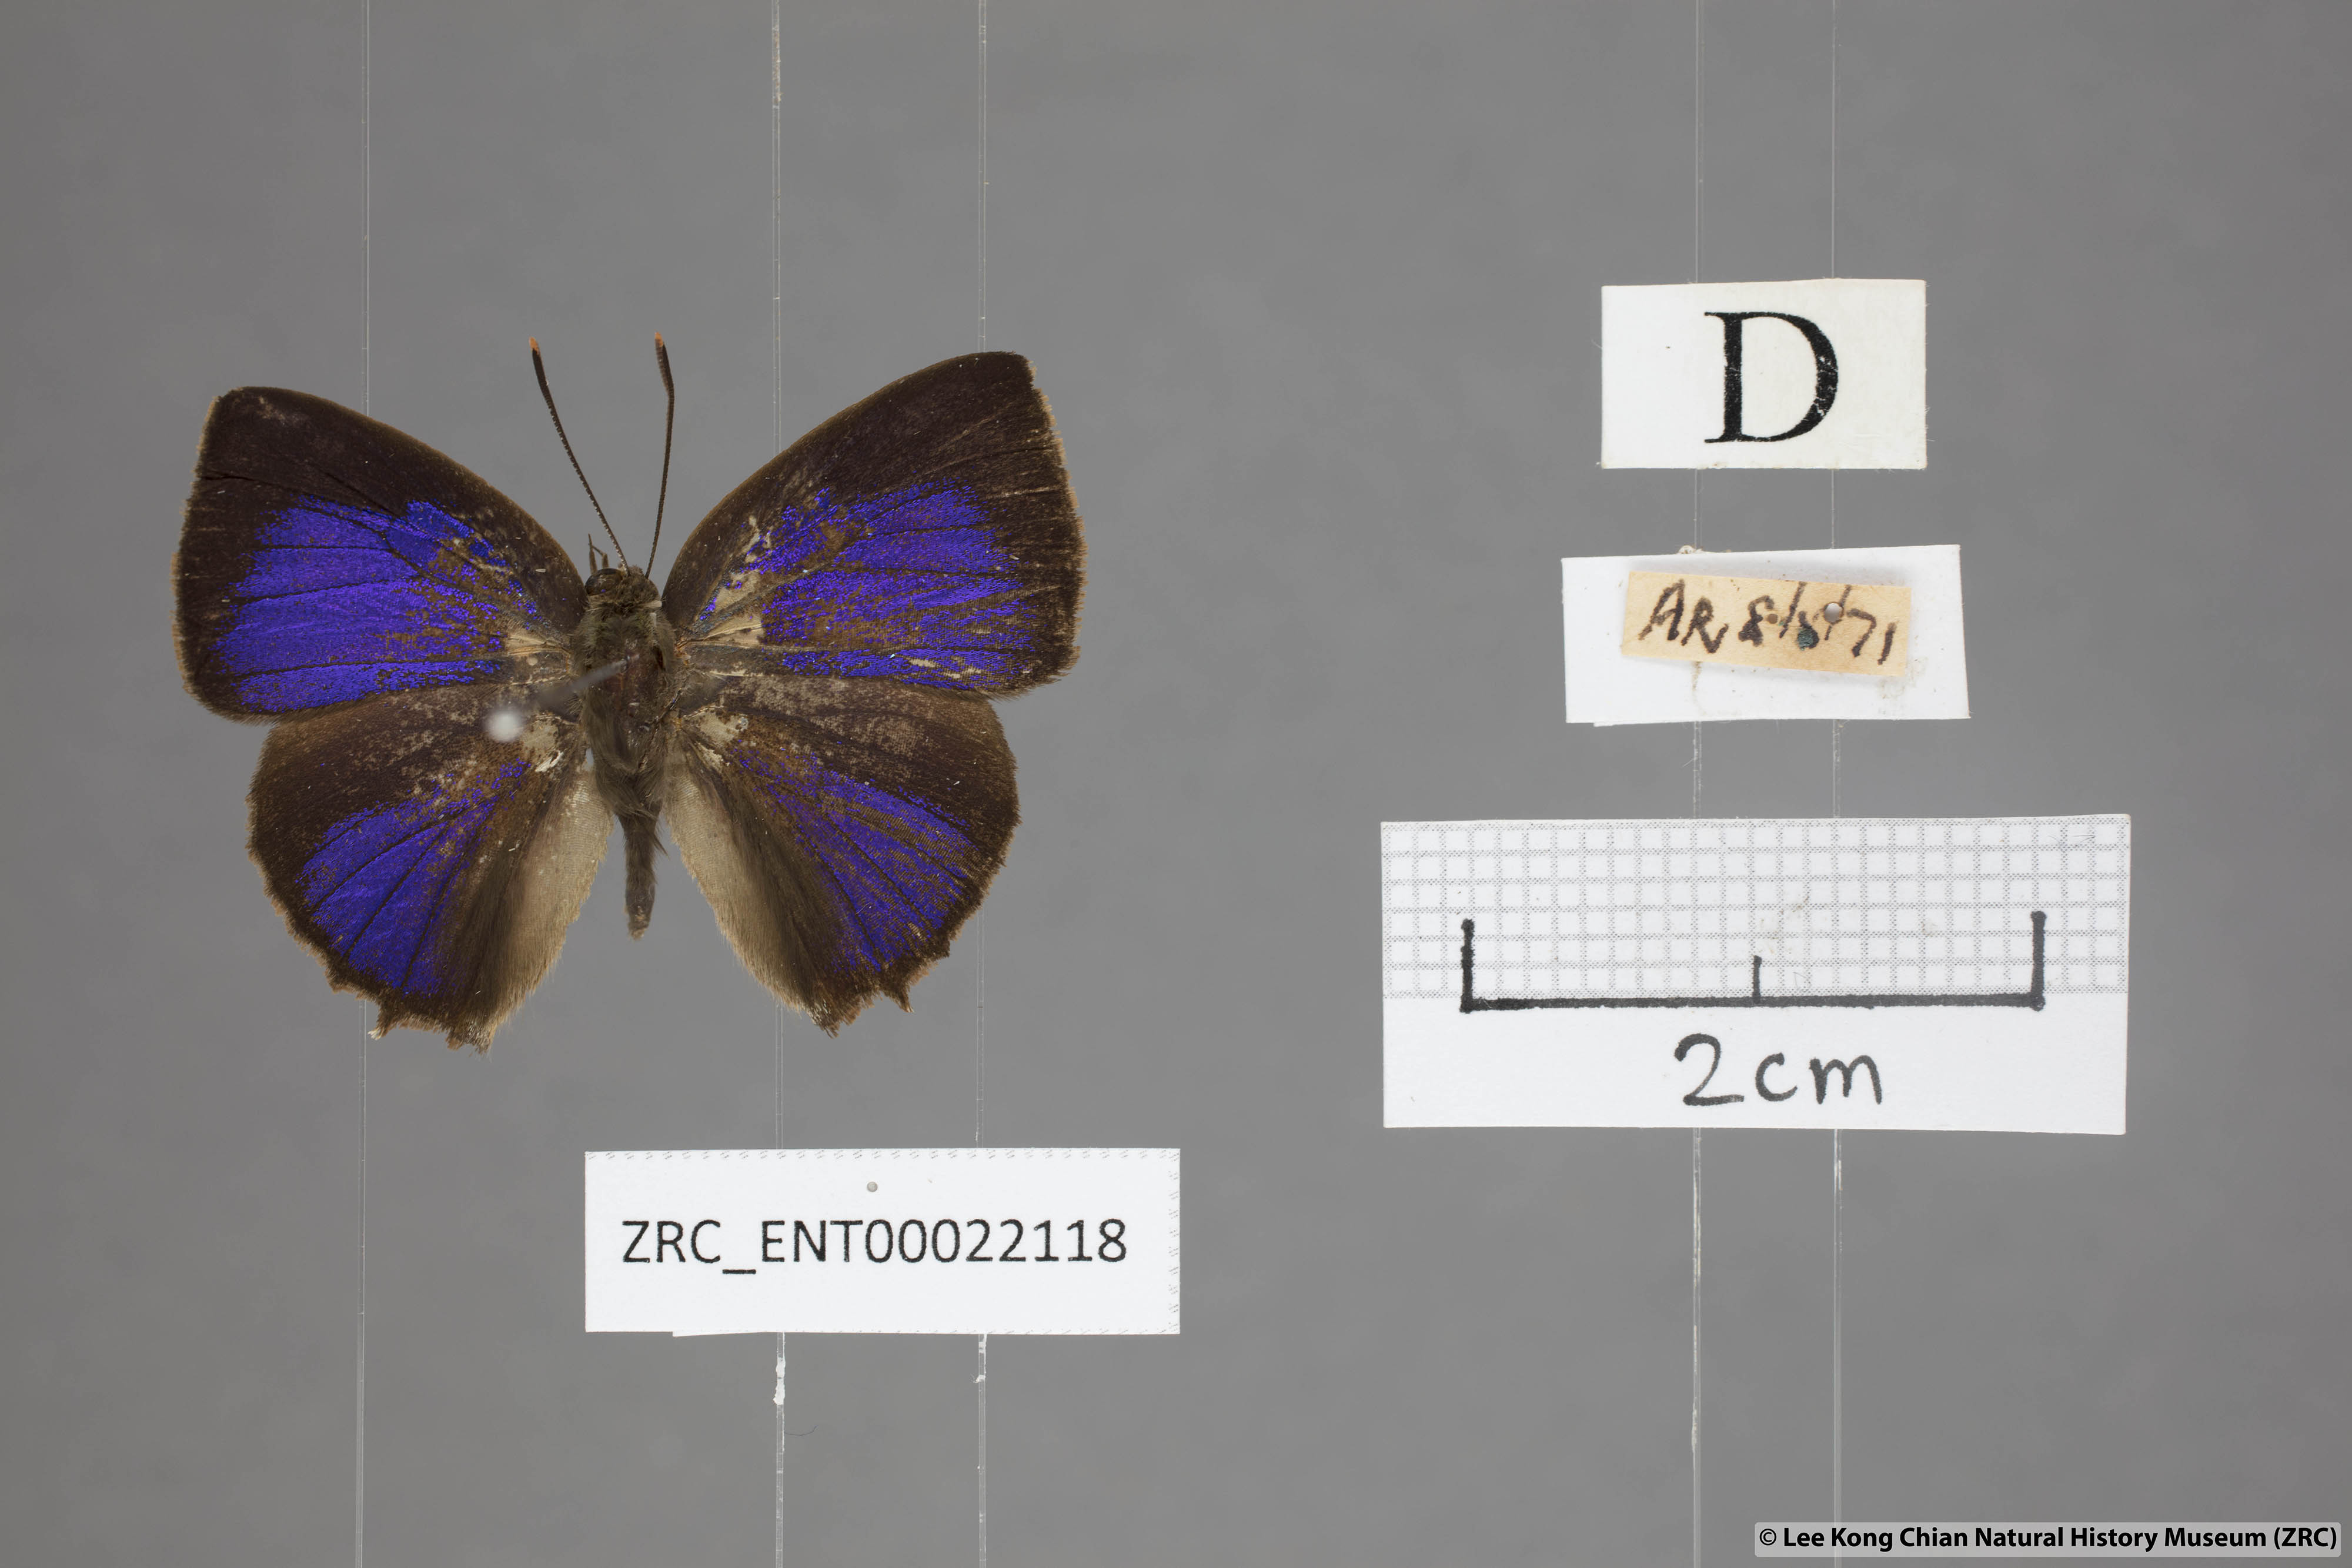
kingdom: Animalia
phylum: Arthropoda
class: Insecta
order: Lepidoptera
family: Lycaenidae
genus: Surendra
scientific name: Surendra florimel
